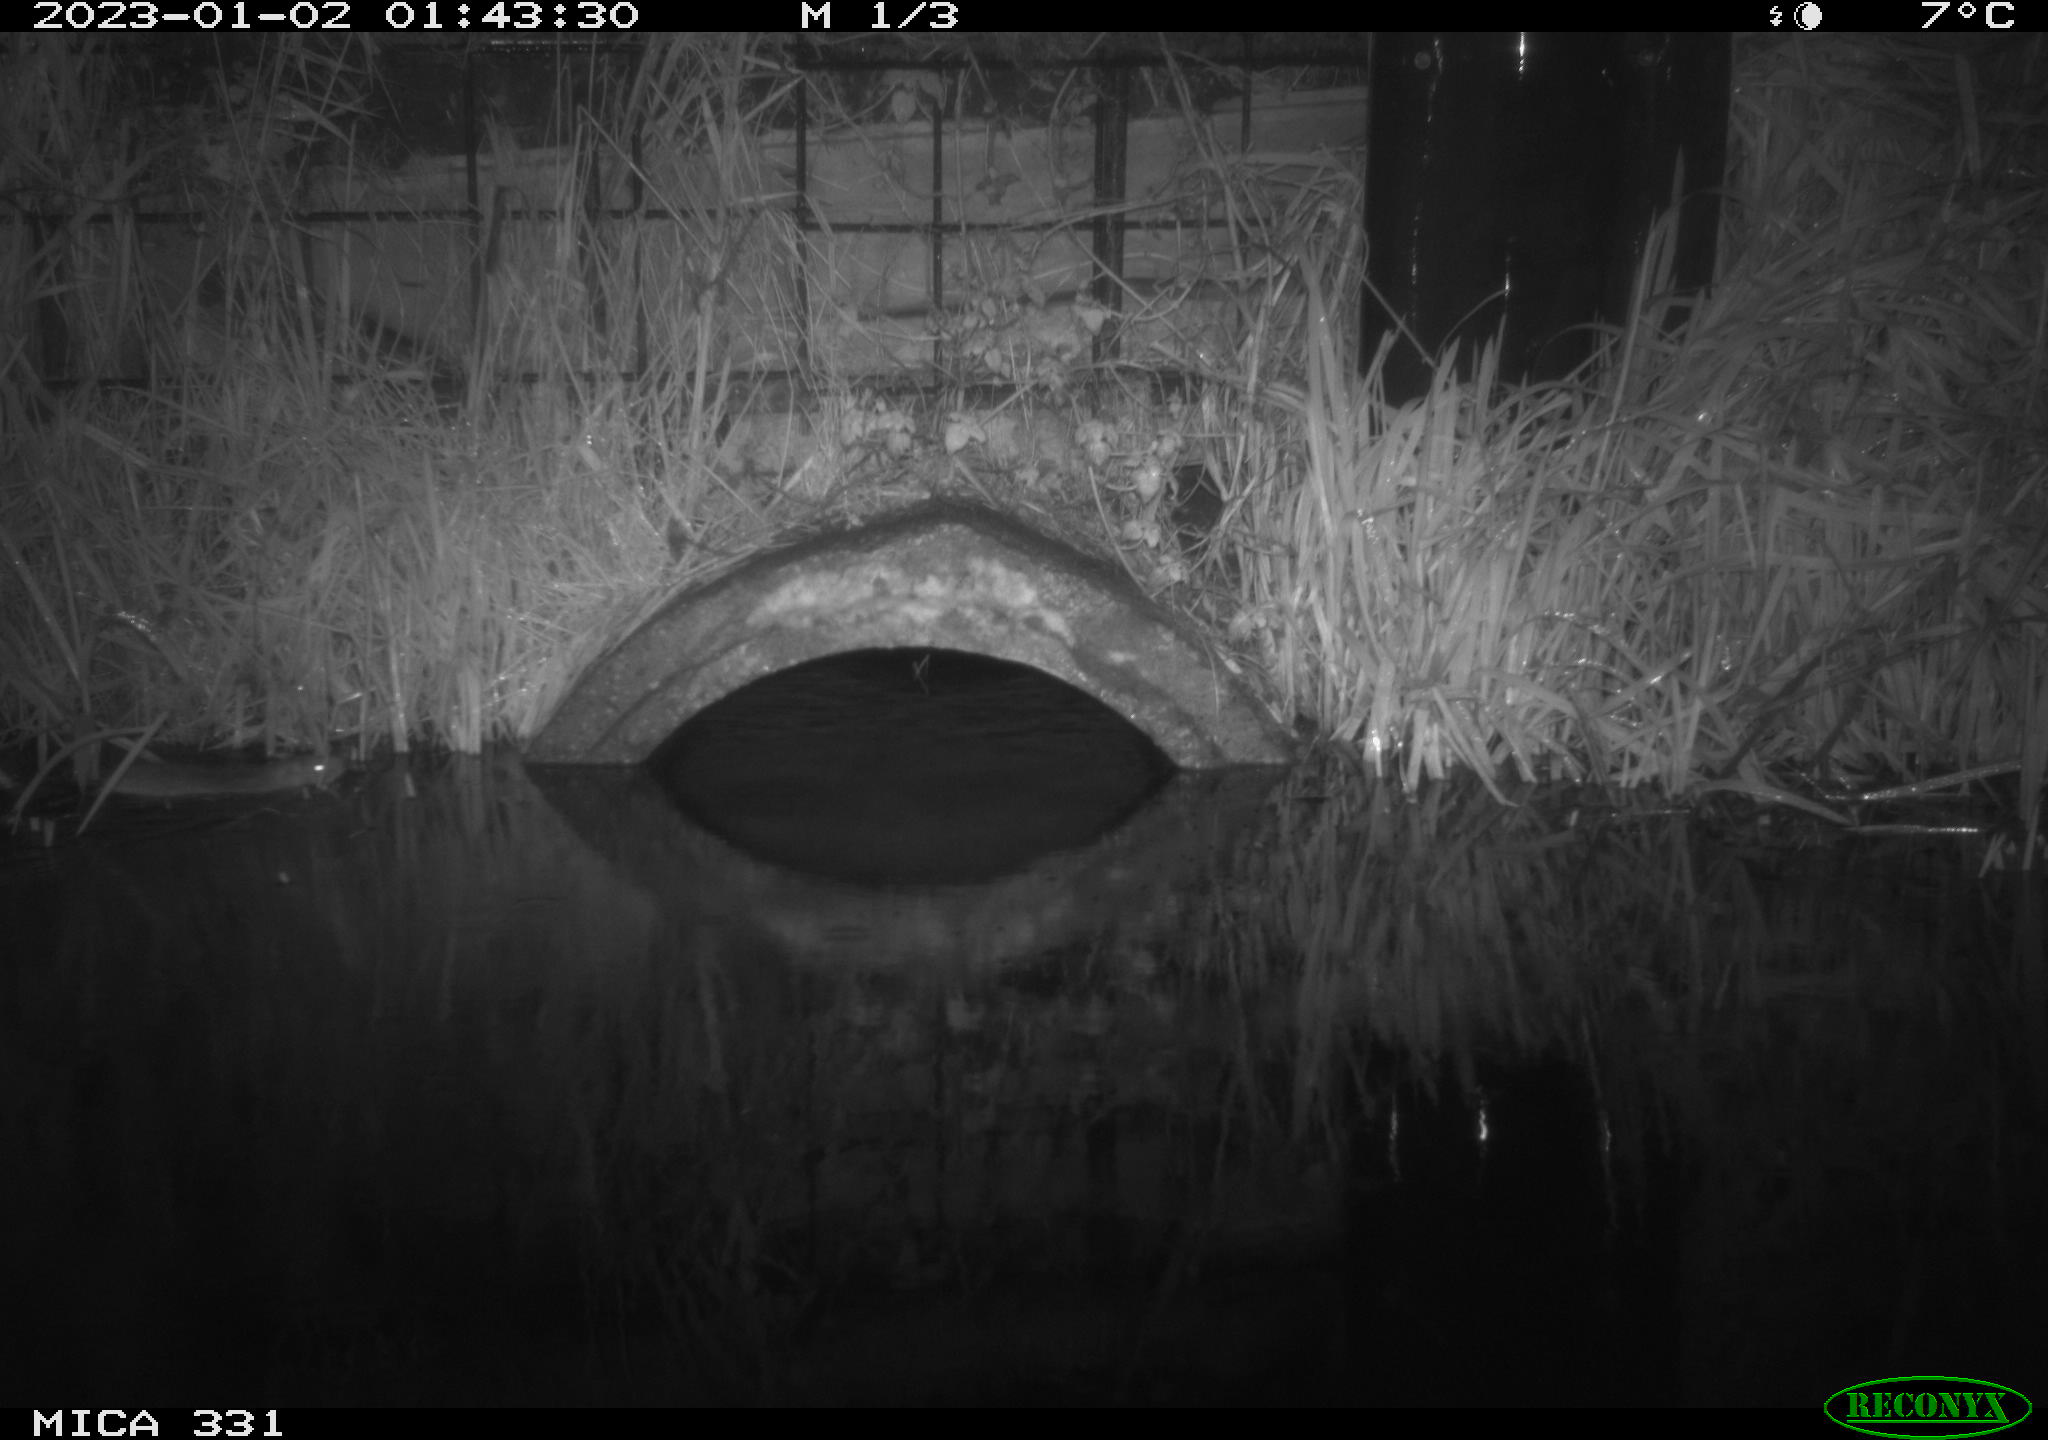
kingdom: Animalia
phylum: Chordata
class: Mammalia
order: Rodentia
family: Muridae
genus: Rattus
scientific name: Rattus norvegicus
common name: Brown rat
